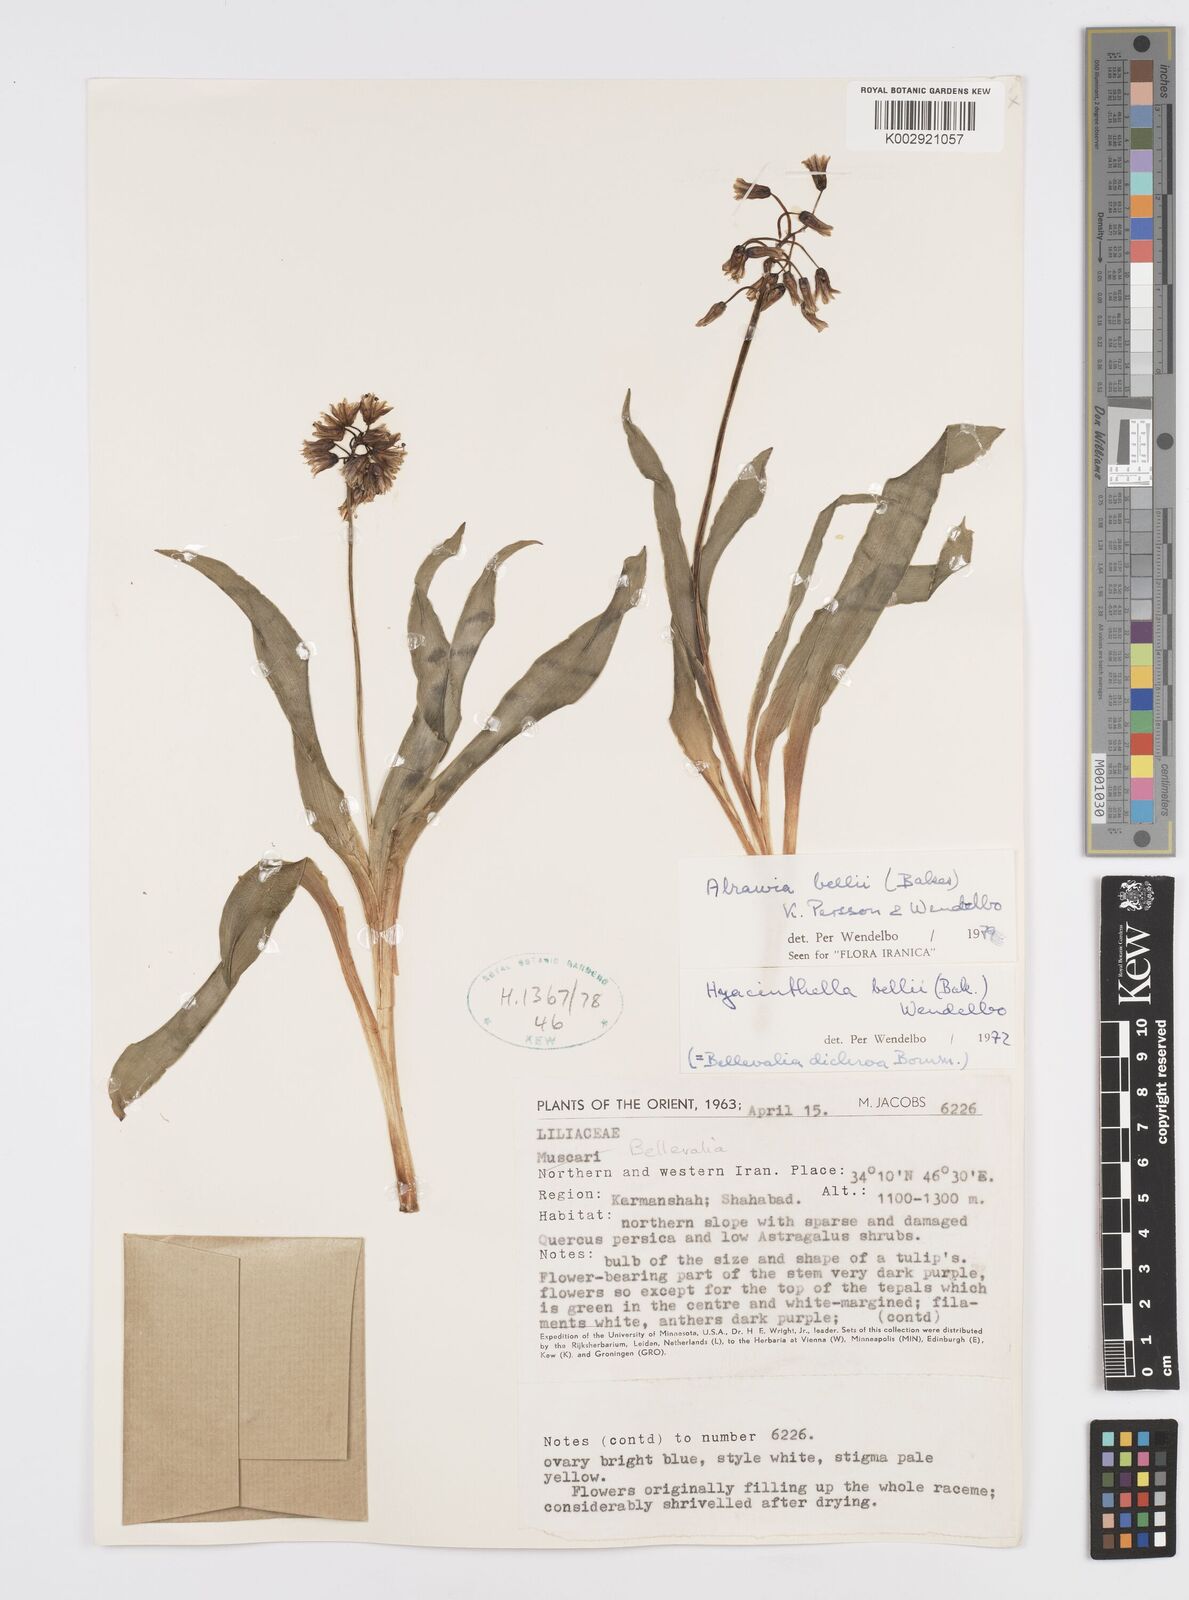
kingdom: Plantae
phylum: Tracheophyta
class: Liliopsida
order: Asparagales
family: Asparagaceae
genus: Alrawia
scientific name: Alrawia bellii
